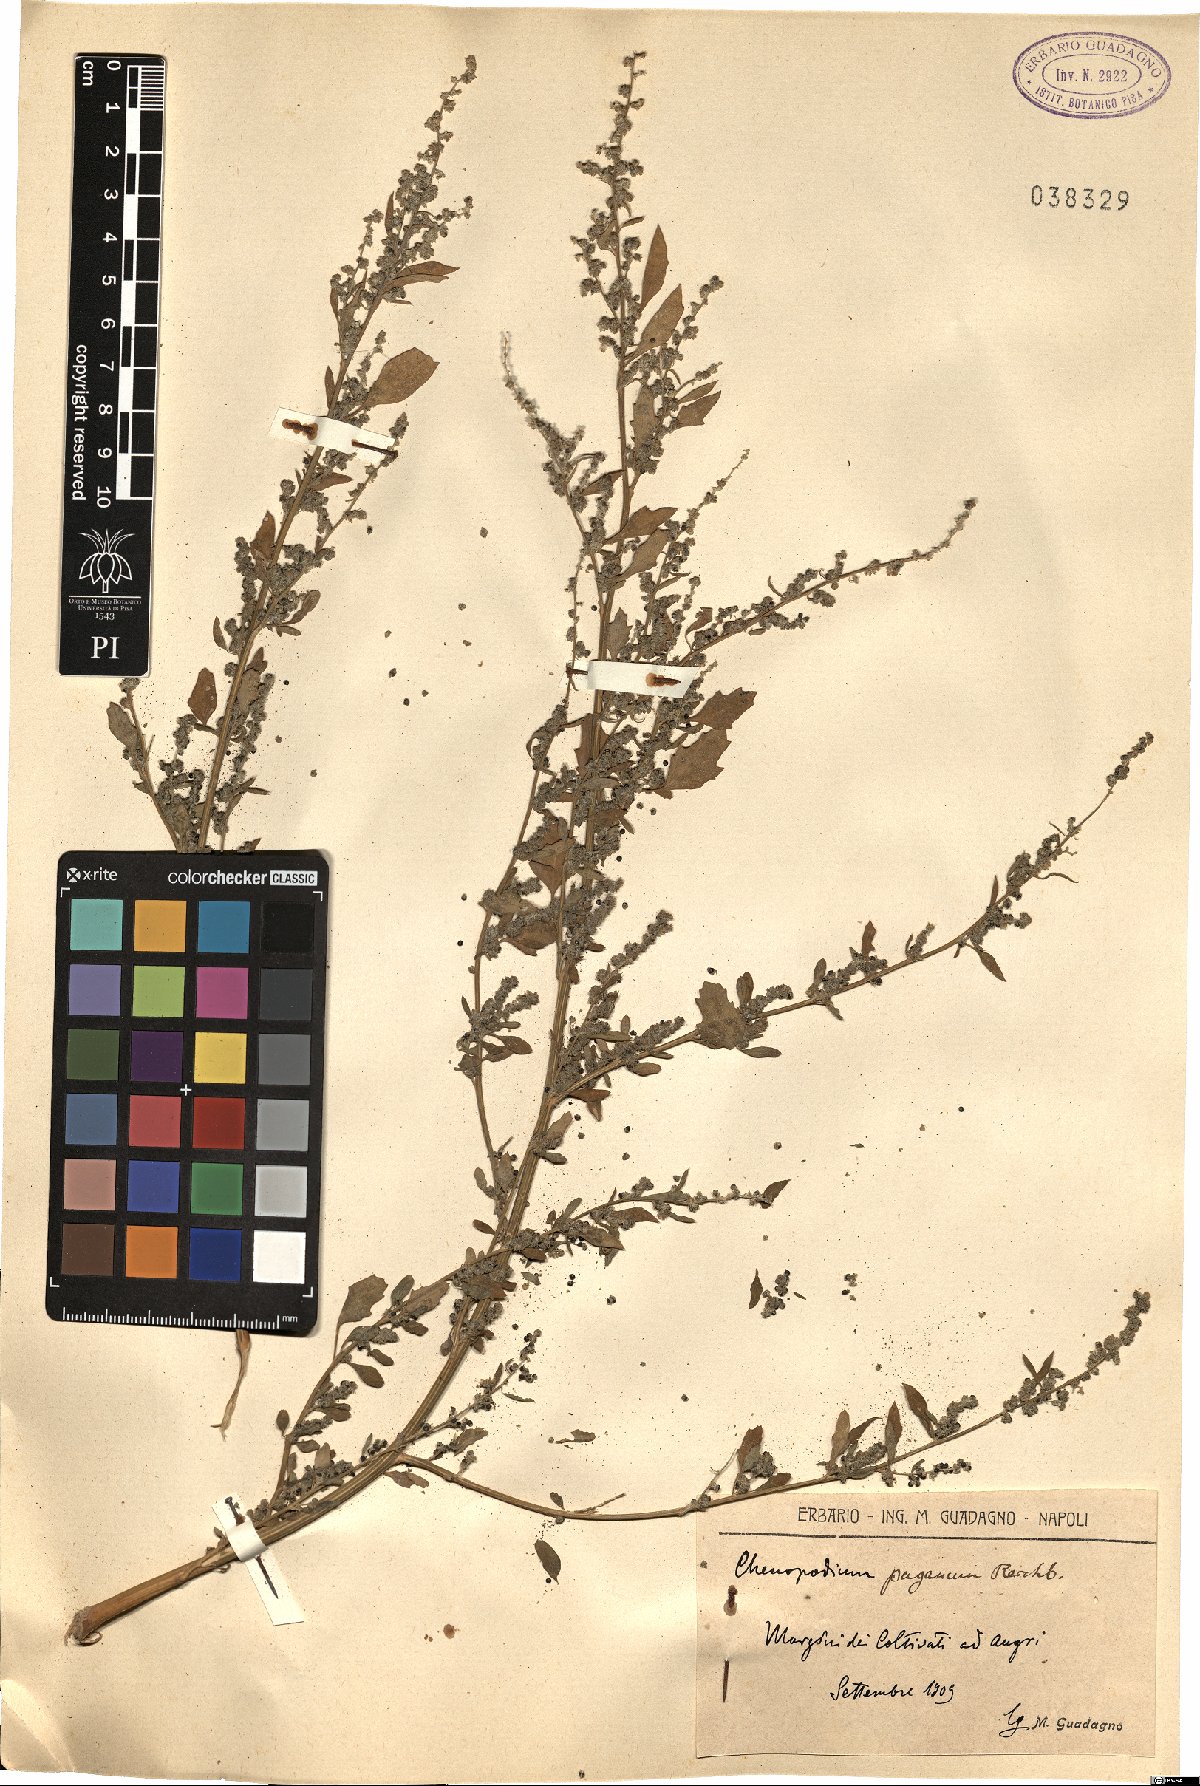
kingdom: Plantae
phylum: Tracheophyta
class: Magnoliopsida
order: Caryophyllales
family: Amaranthaceae
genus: Chenopodium
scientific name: Chenopodium album
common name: Fat-hen
